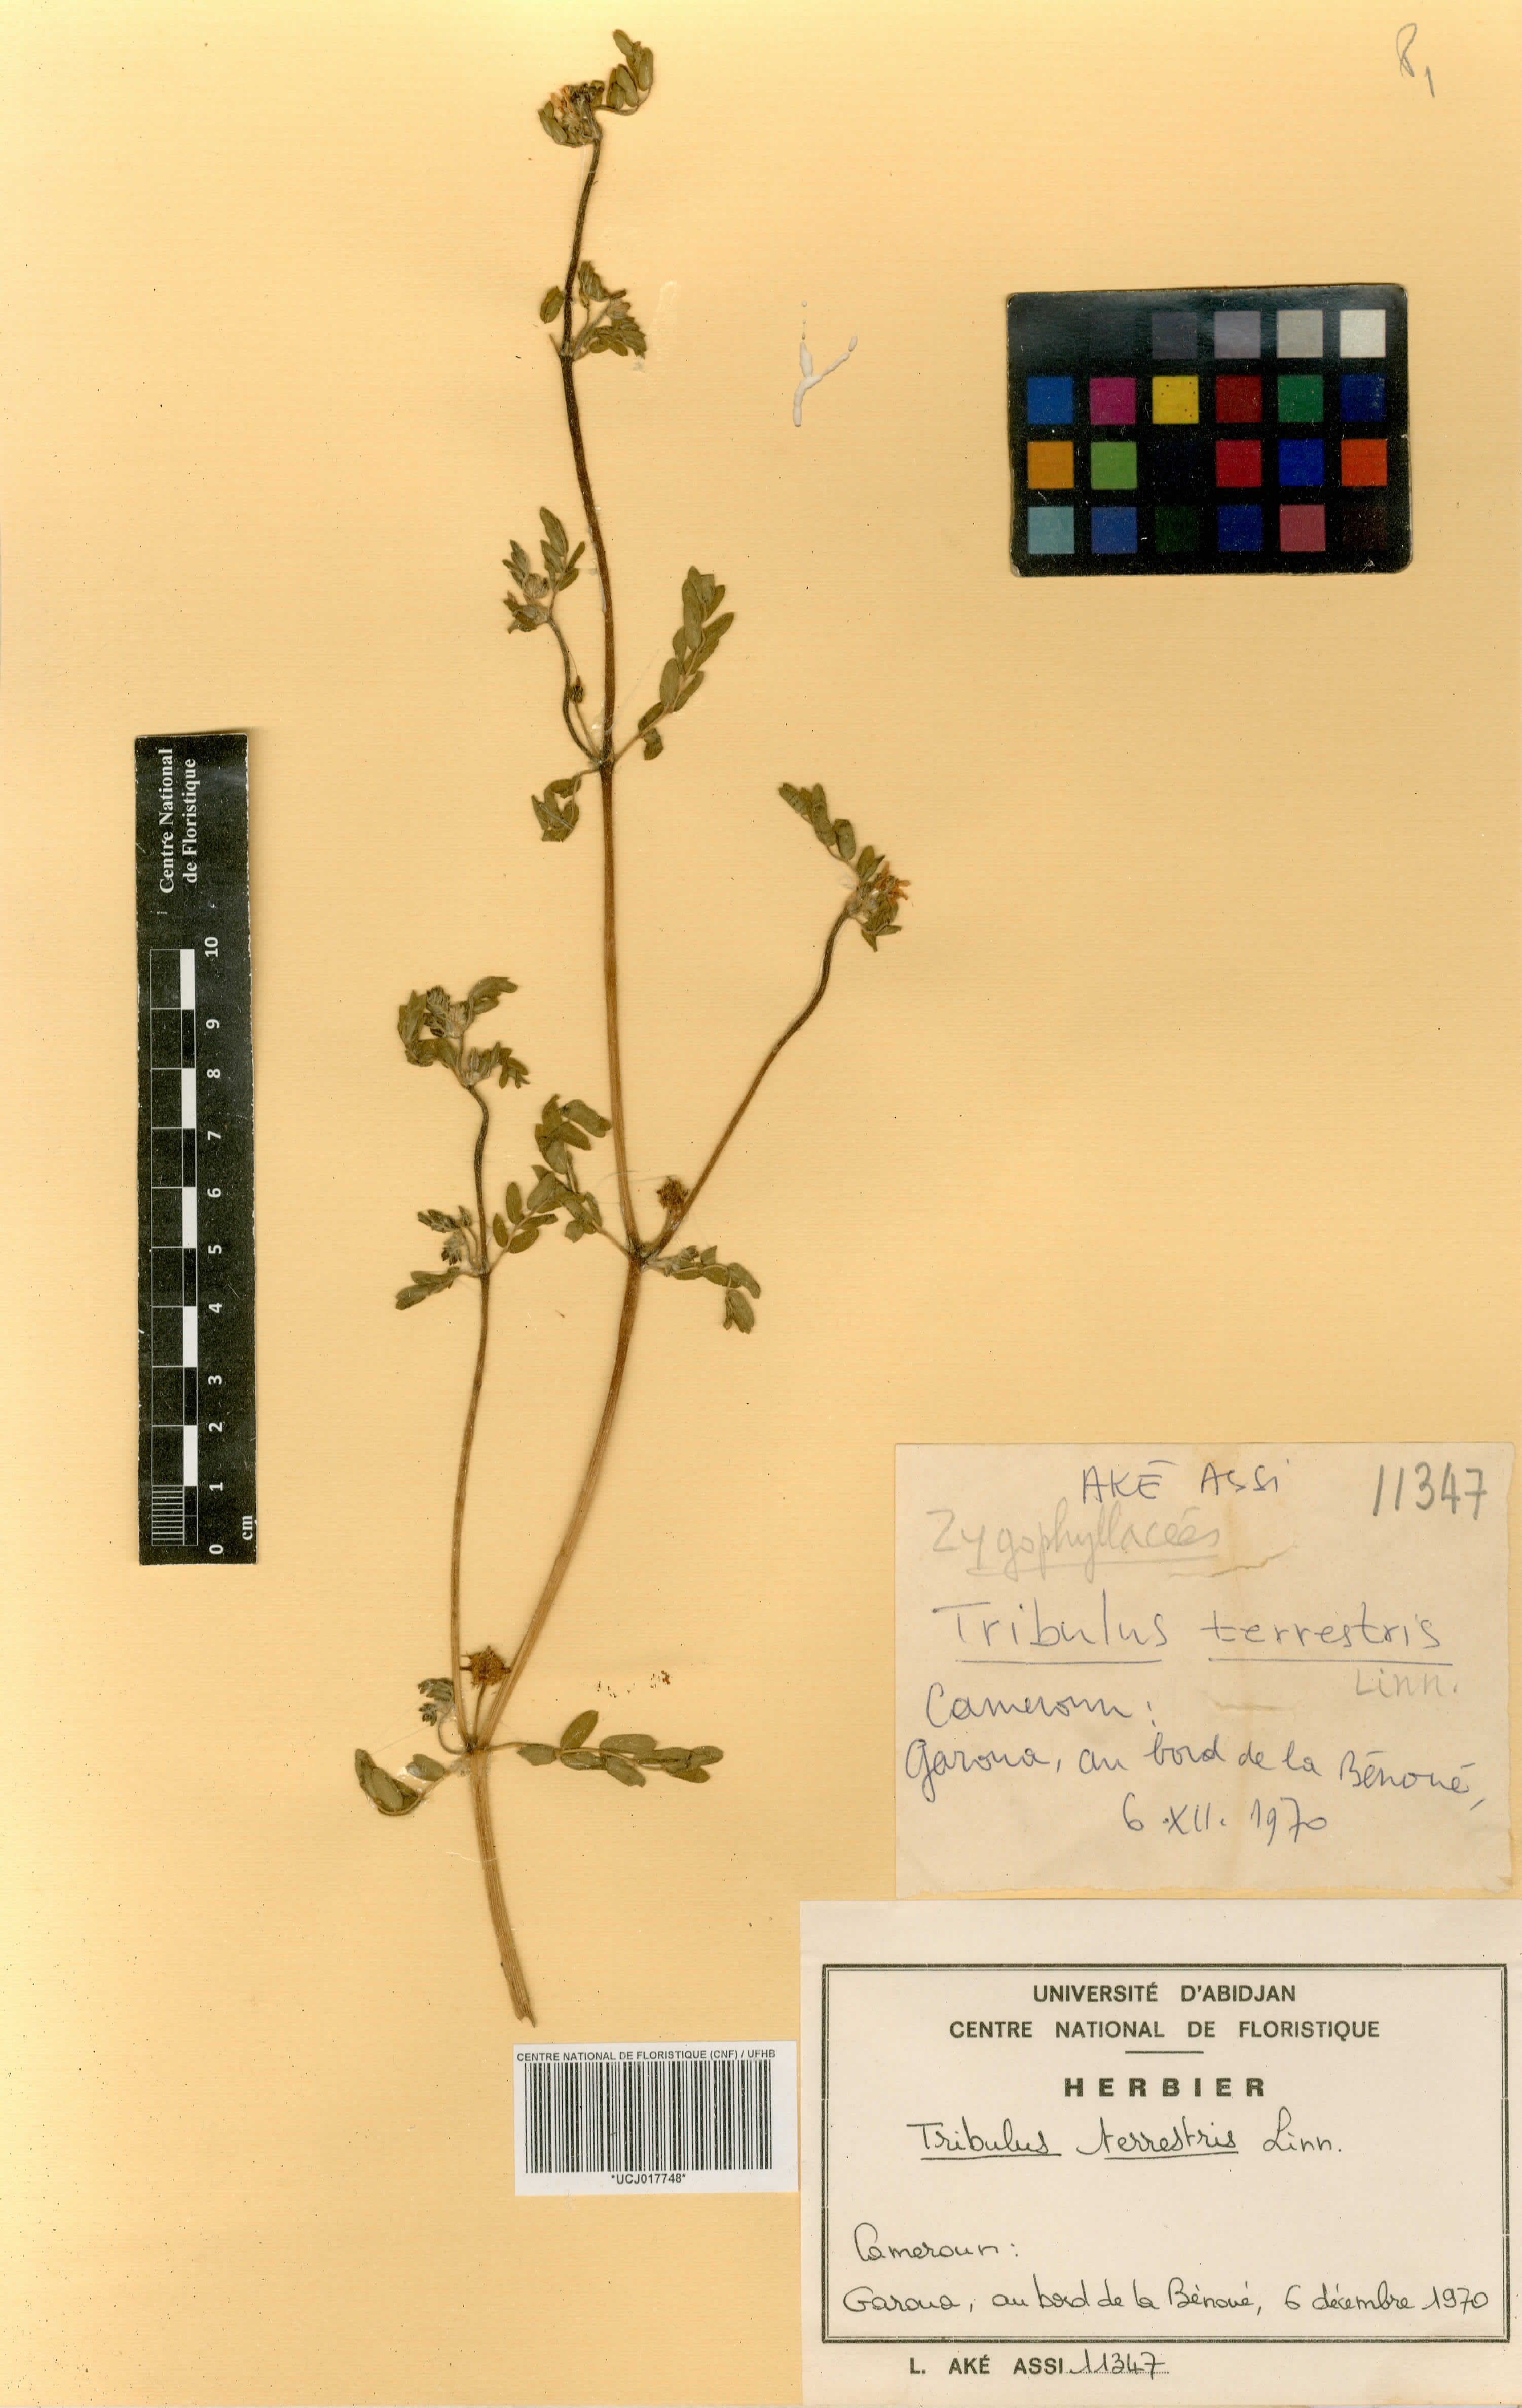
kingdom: Plantae
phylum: Tracheophyta
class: Magnoliopsida
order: Zygophyllales
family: Zygophyllaceae
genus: Tribulus
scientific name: Tribulus terrestris
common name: Puncturevine
